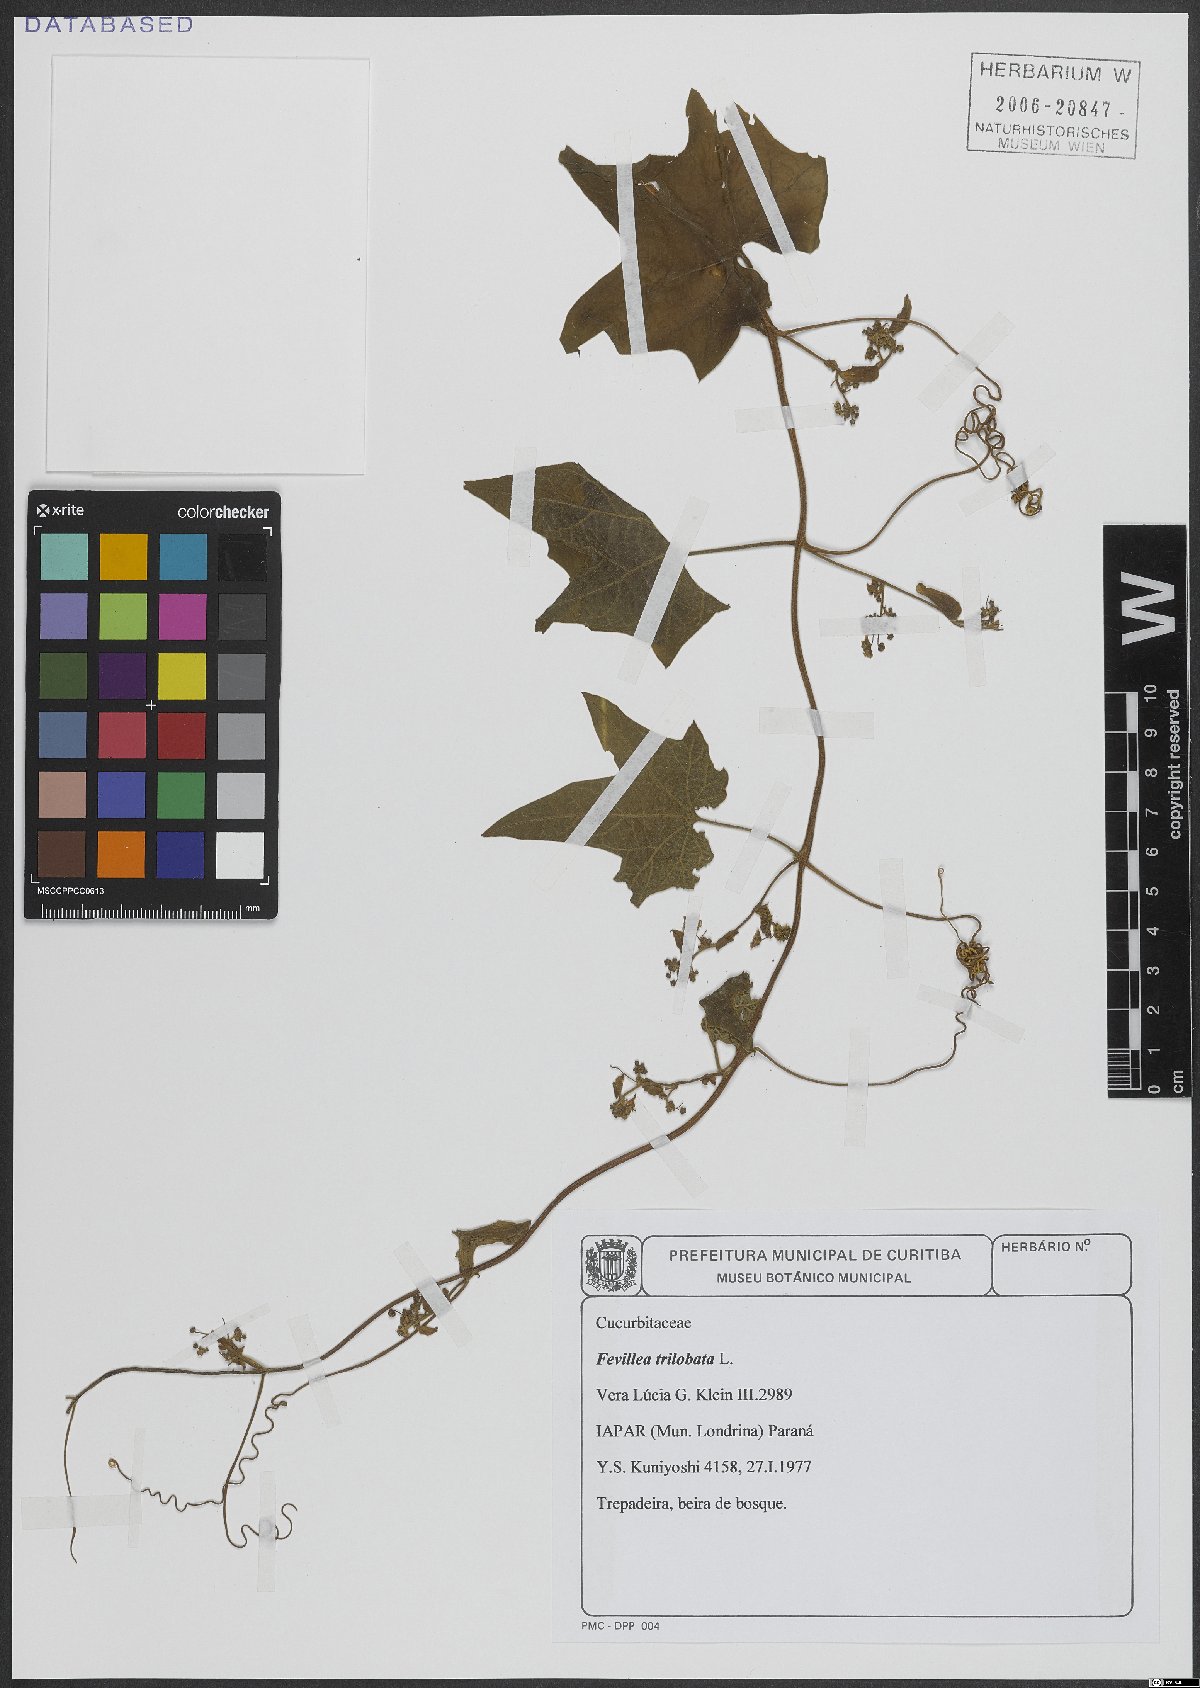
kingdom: Plantae
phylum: Tracheophyta
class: Magnoliopsida
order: Cucurbitales
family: Cucurbitaceae
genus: Fevillea
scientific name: Fevillea trilobata
